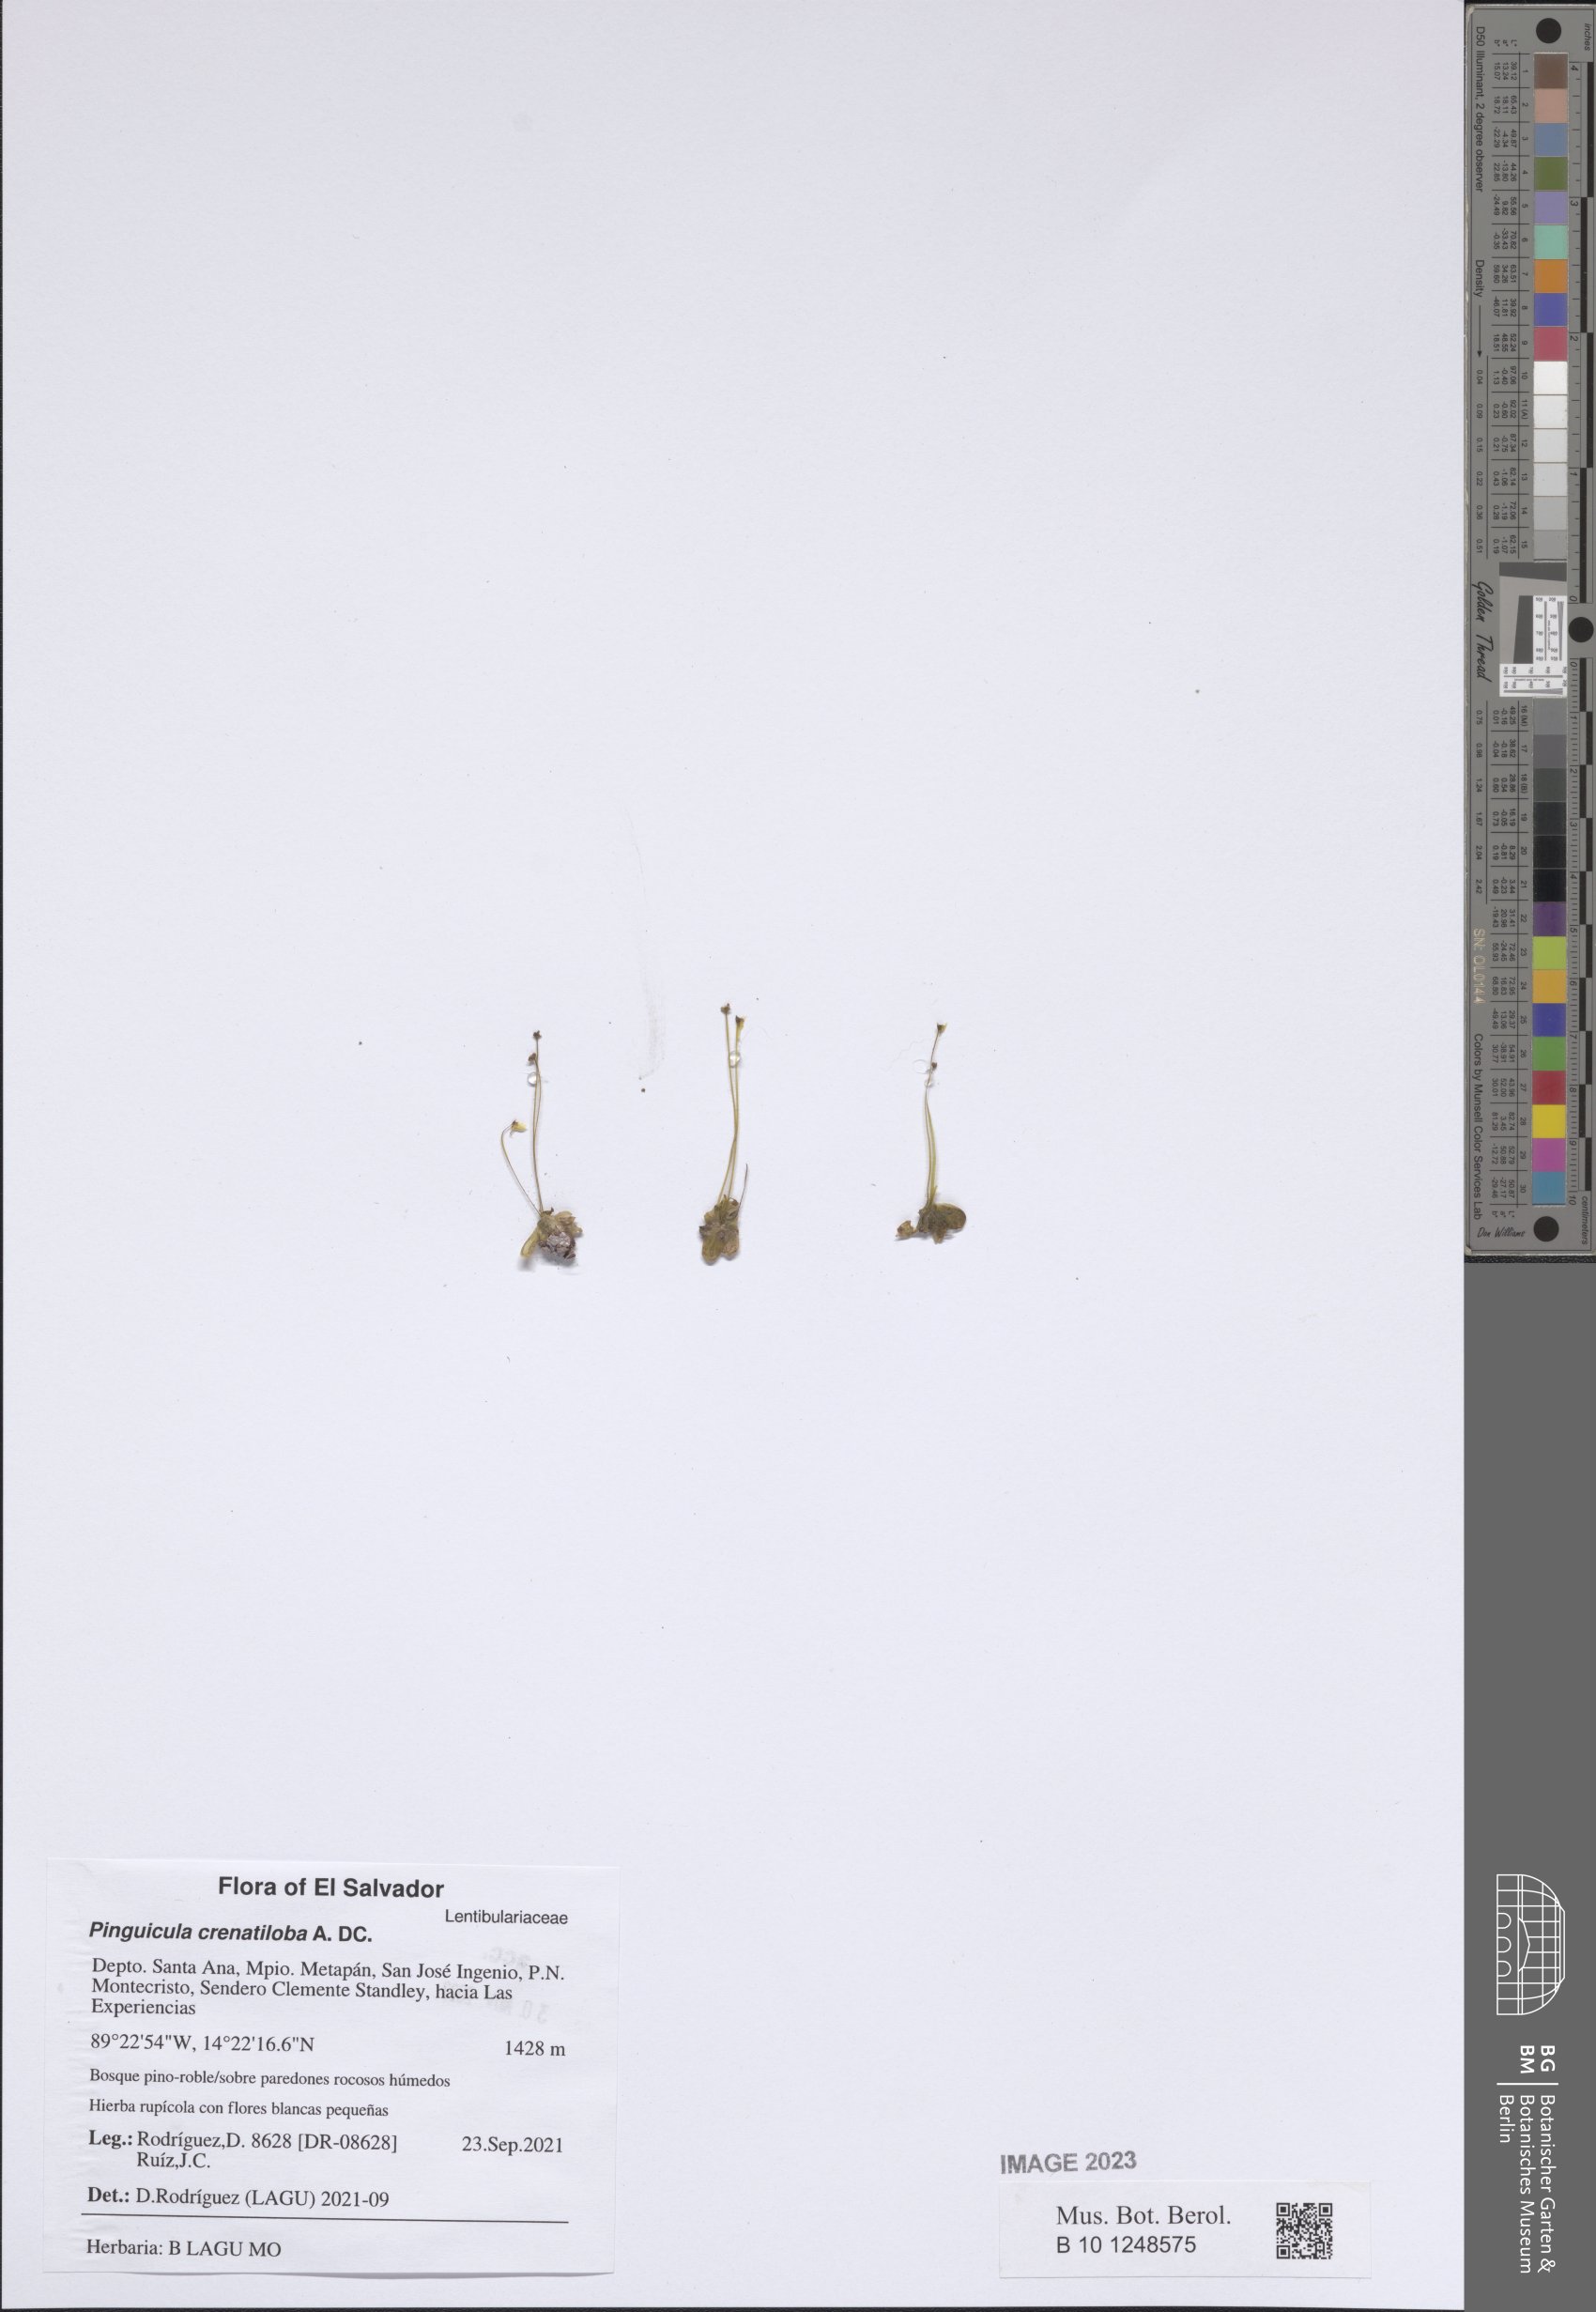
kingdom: Plantae
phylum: Tracheophyta
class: Magnoliopsida
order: Lamiales
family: Lentibulariaceae
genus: Pinguicula
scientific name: Pinguicula crenatiloba
